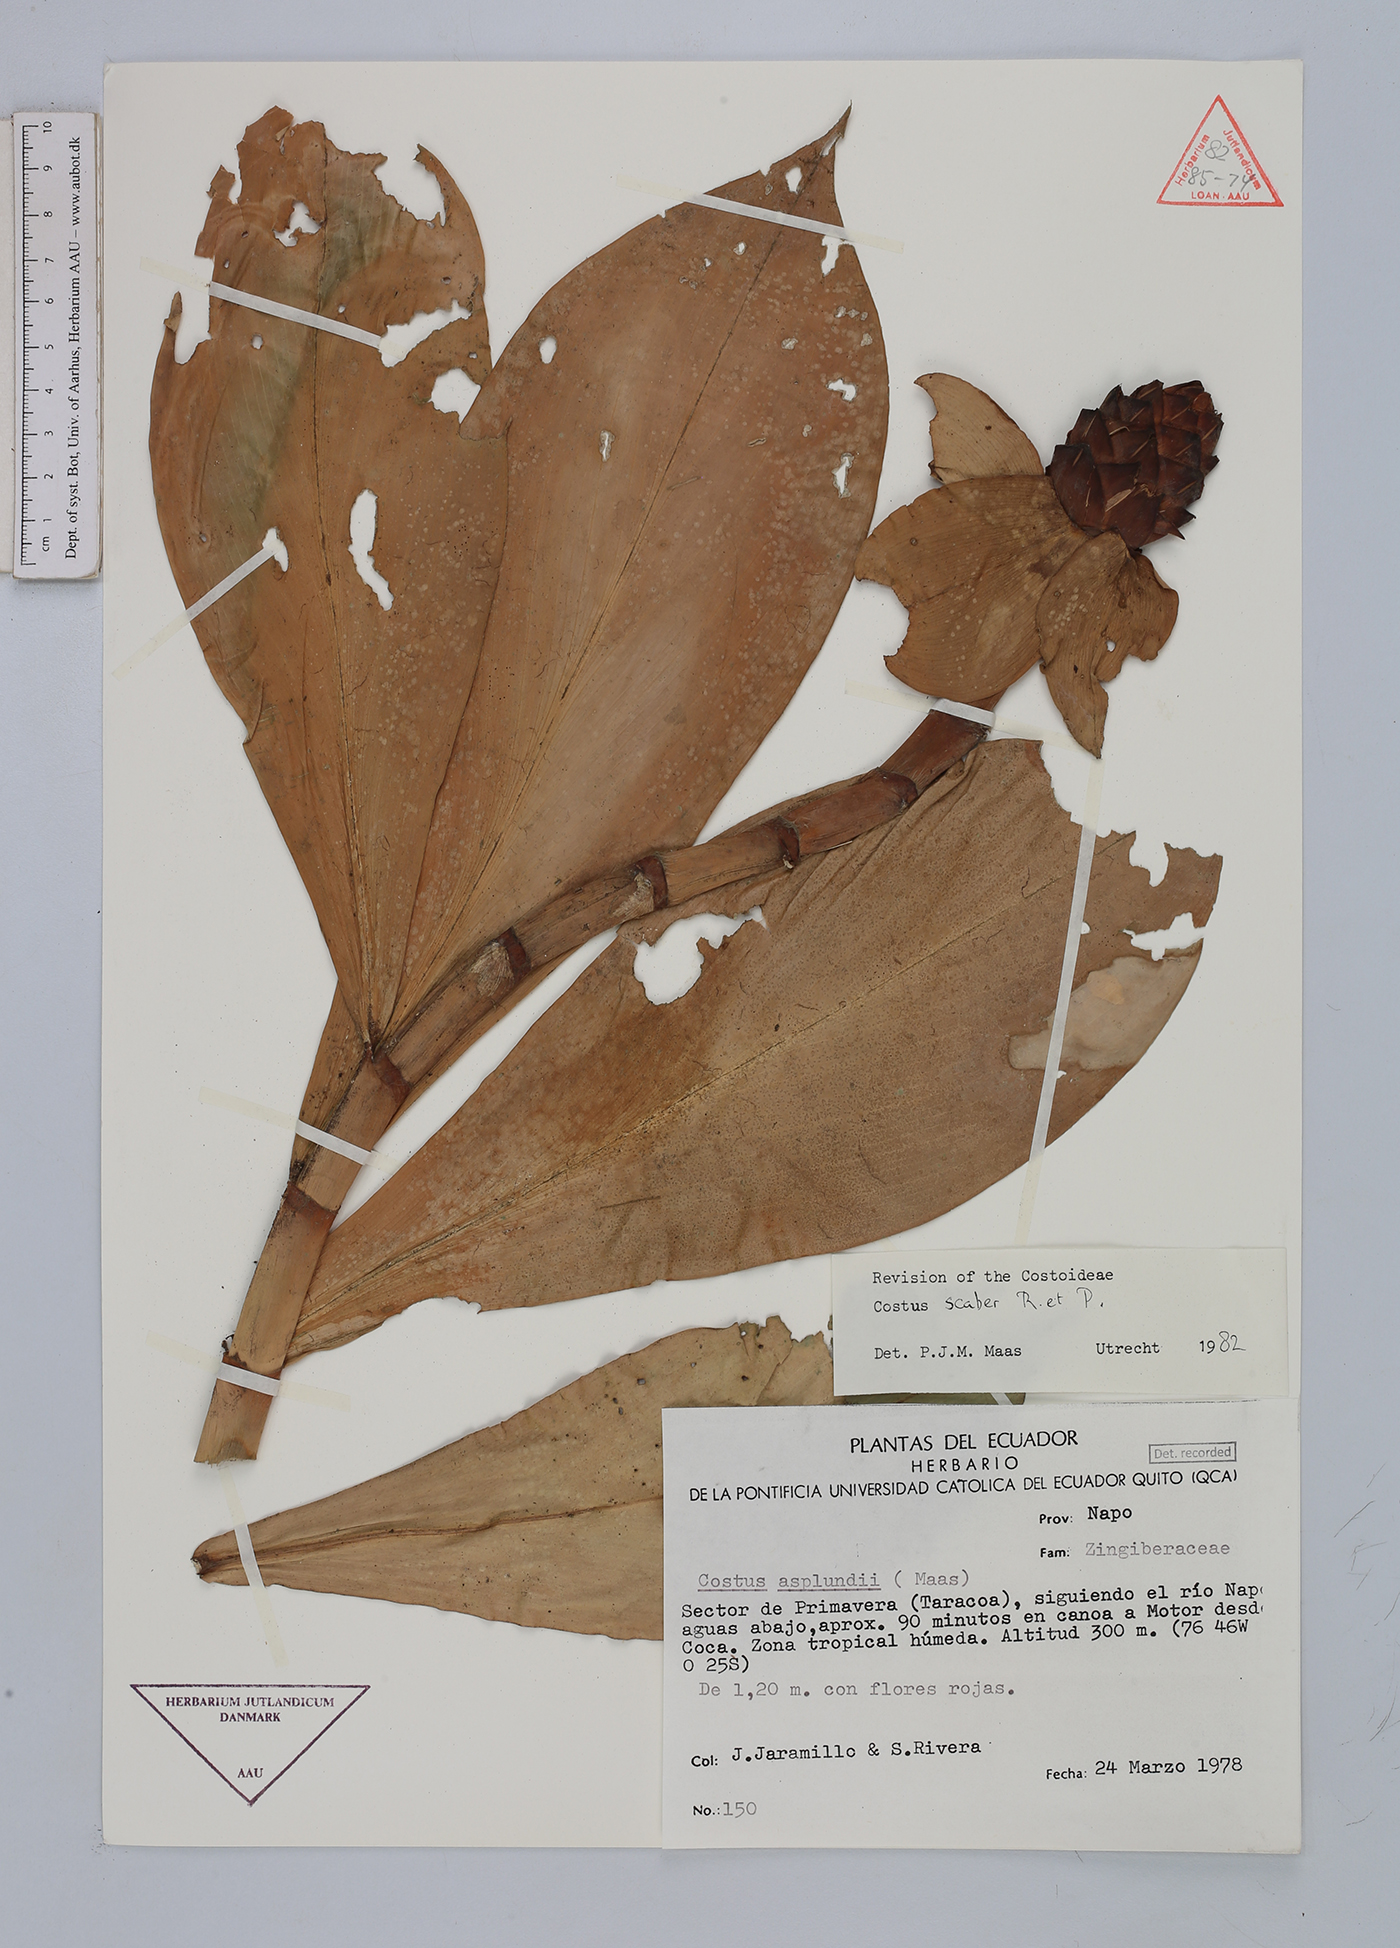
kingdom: Plantae
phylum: Tracheophyta
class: Liliopsida
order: Zingiberales
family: Costaceae
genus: Costus
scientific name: Costus scaber
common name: Spiral head ginger
